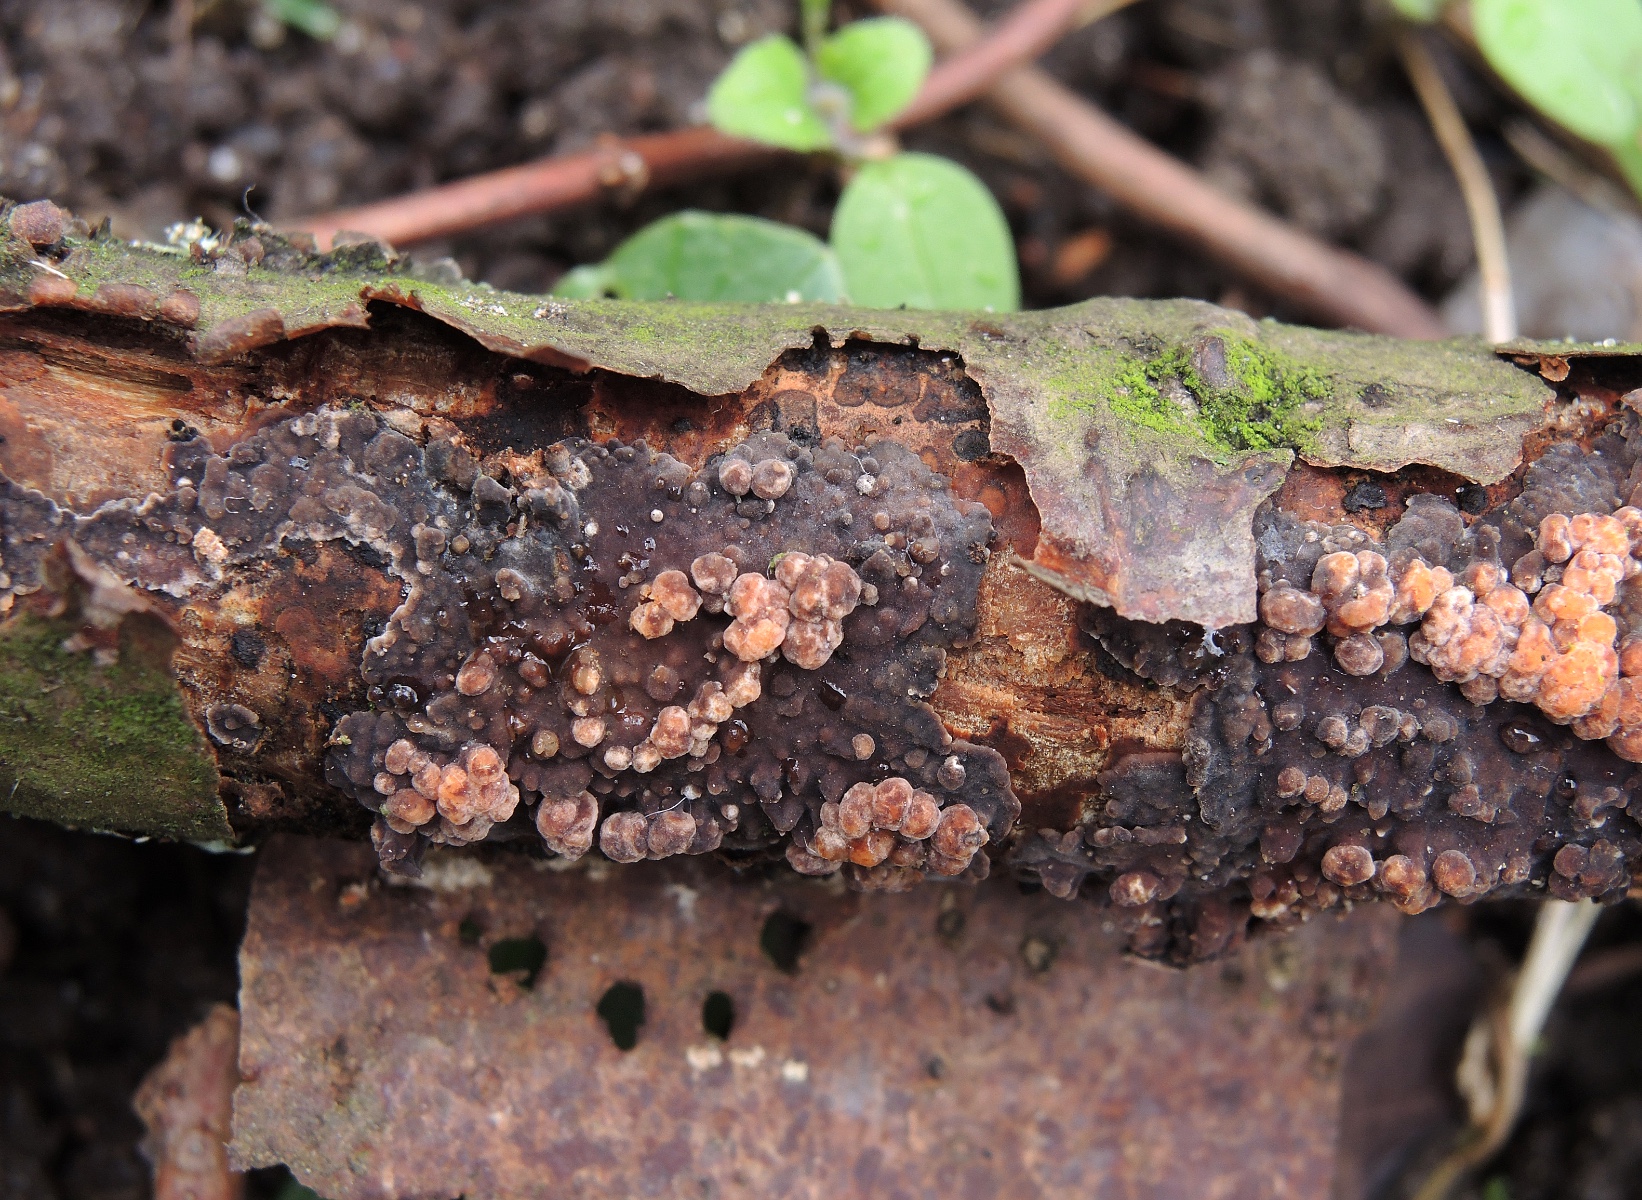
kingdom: Fungi
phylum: Basidiomycota
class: Pucciniomycetes
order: Platygloeales
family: Platygloeaceae
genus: Platygloea
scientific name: Platygloea
